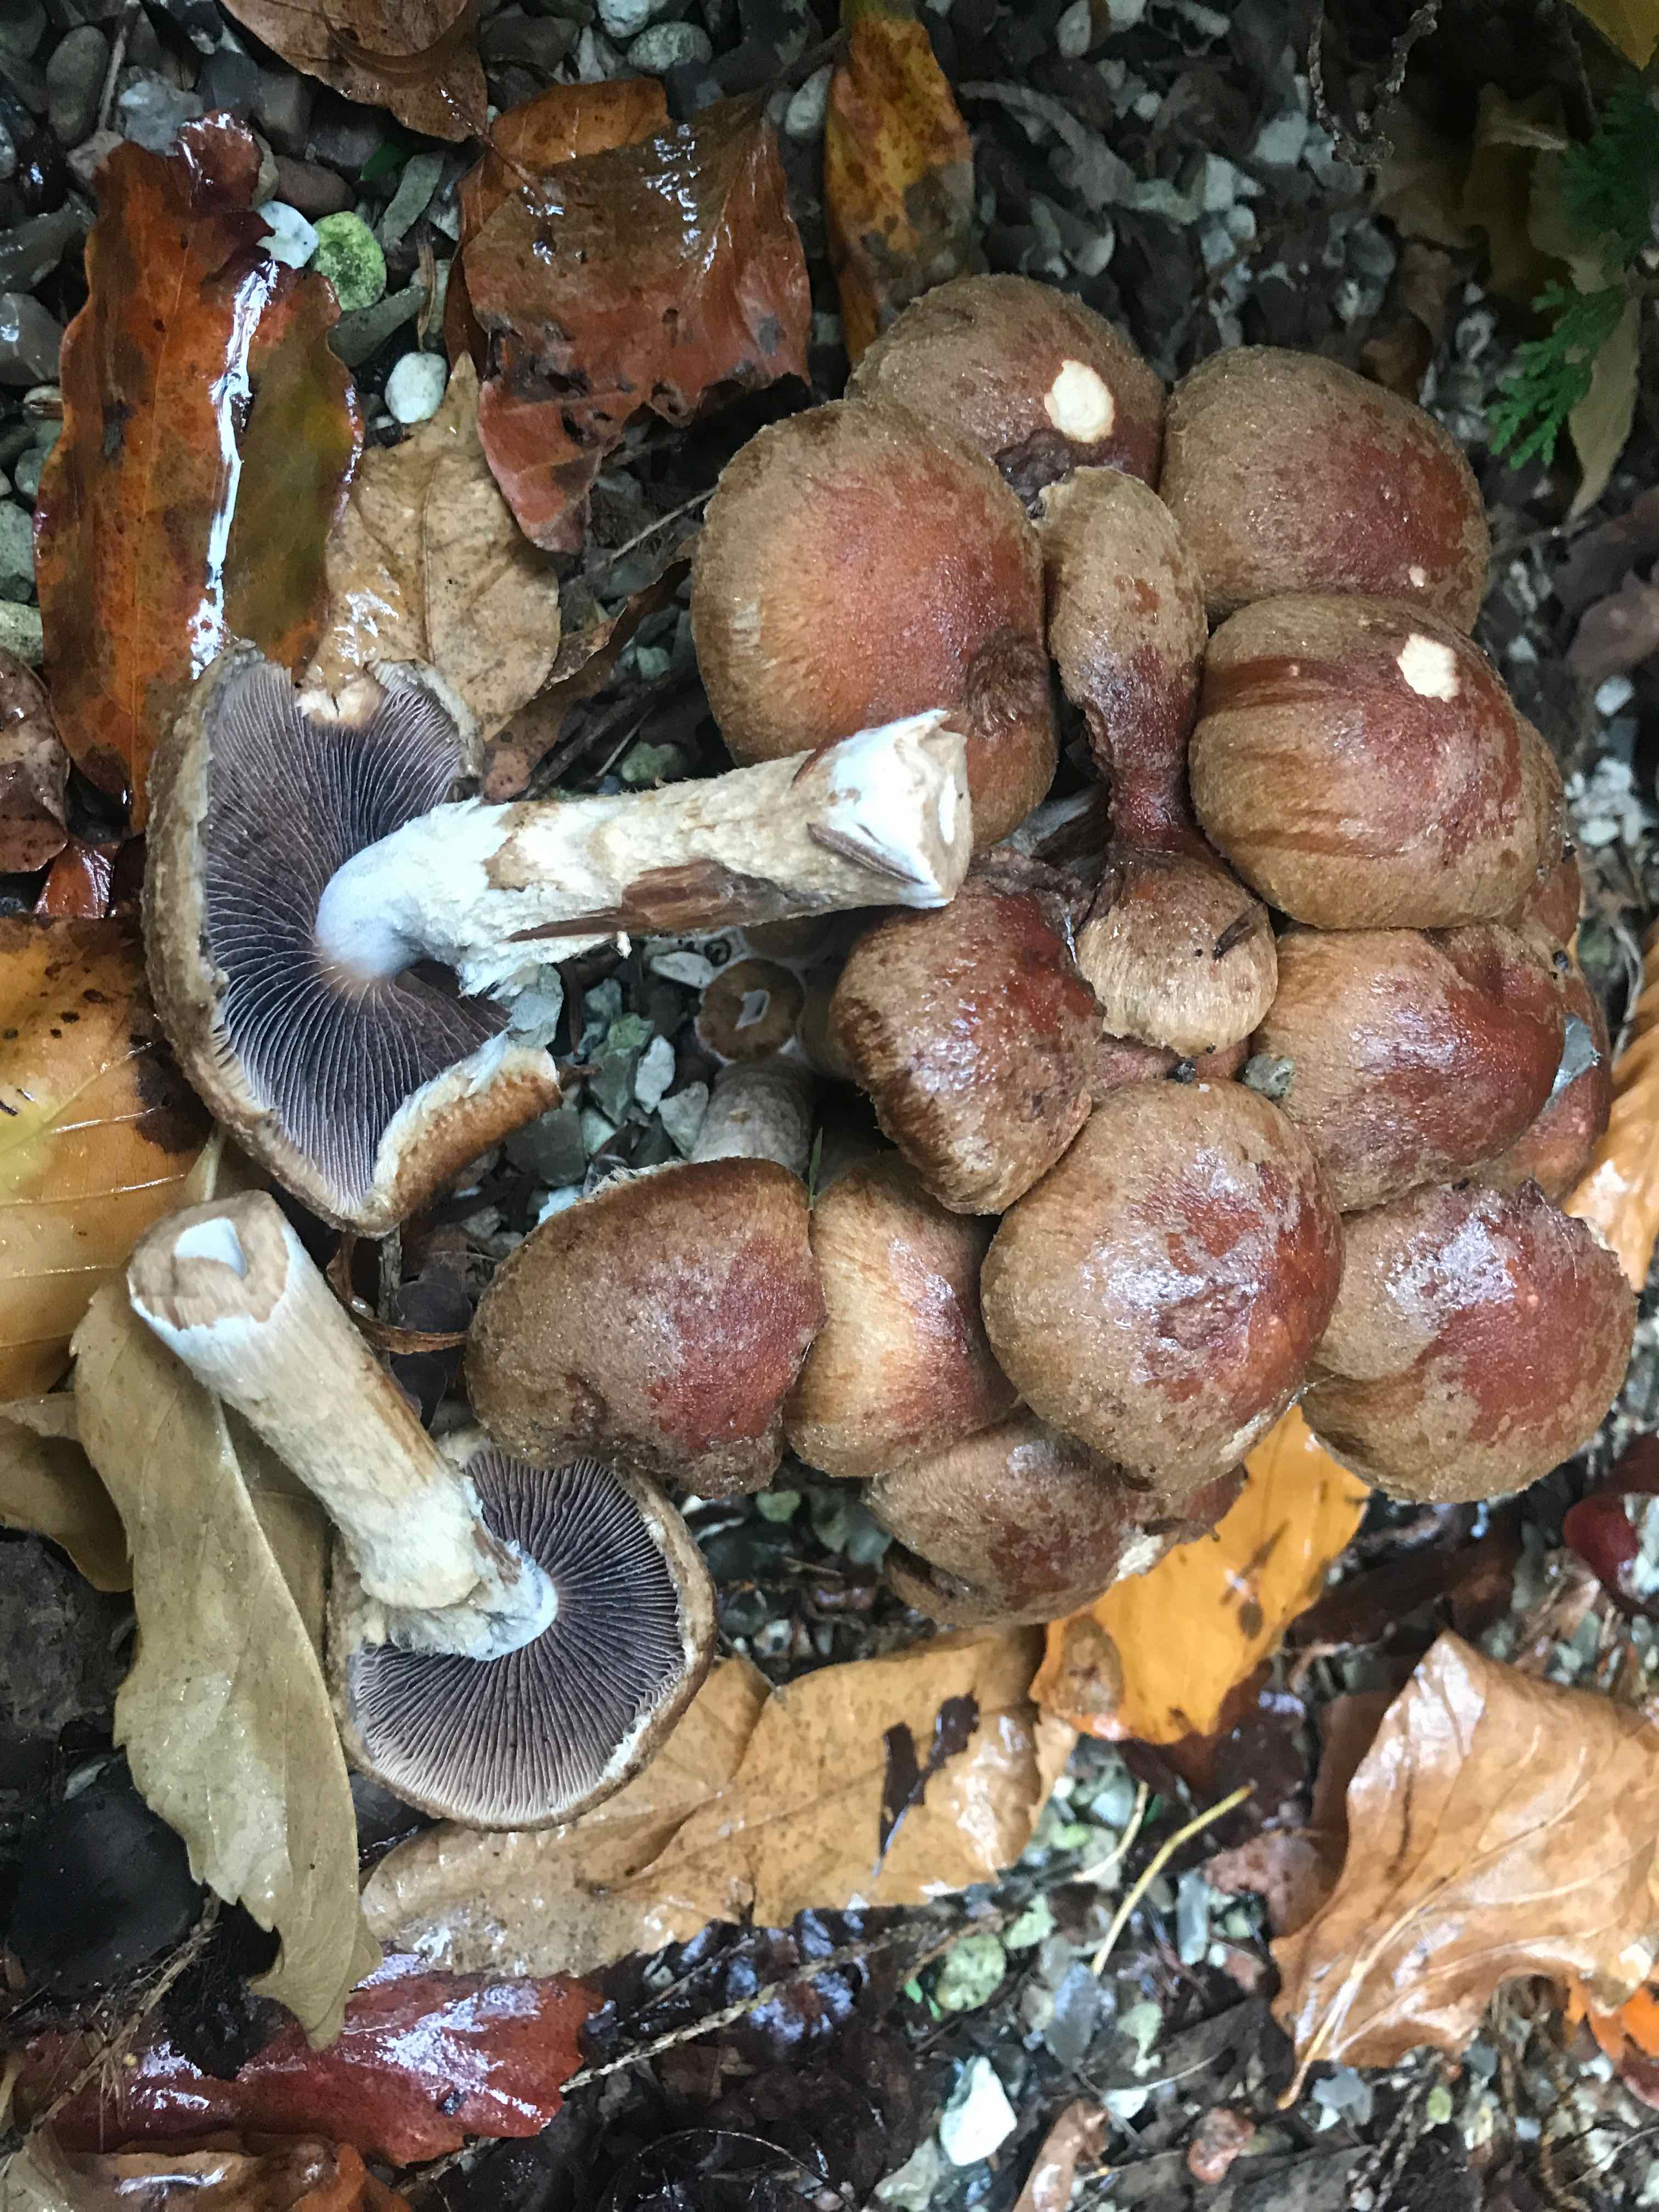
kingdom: Fungi
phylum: Basidiomycota
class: Agaricomycetes
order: Agaricales
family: Psathyrellaceae
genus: Lacrymaria
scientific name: Lacrymaria lacrymabunda
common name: grædende mørkhat
